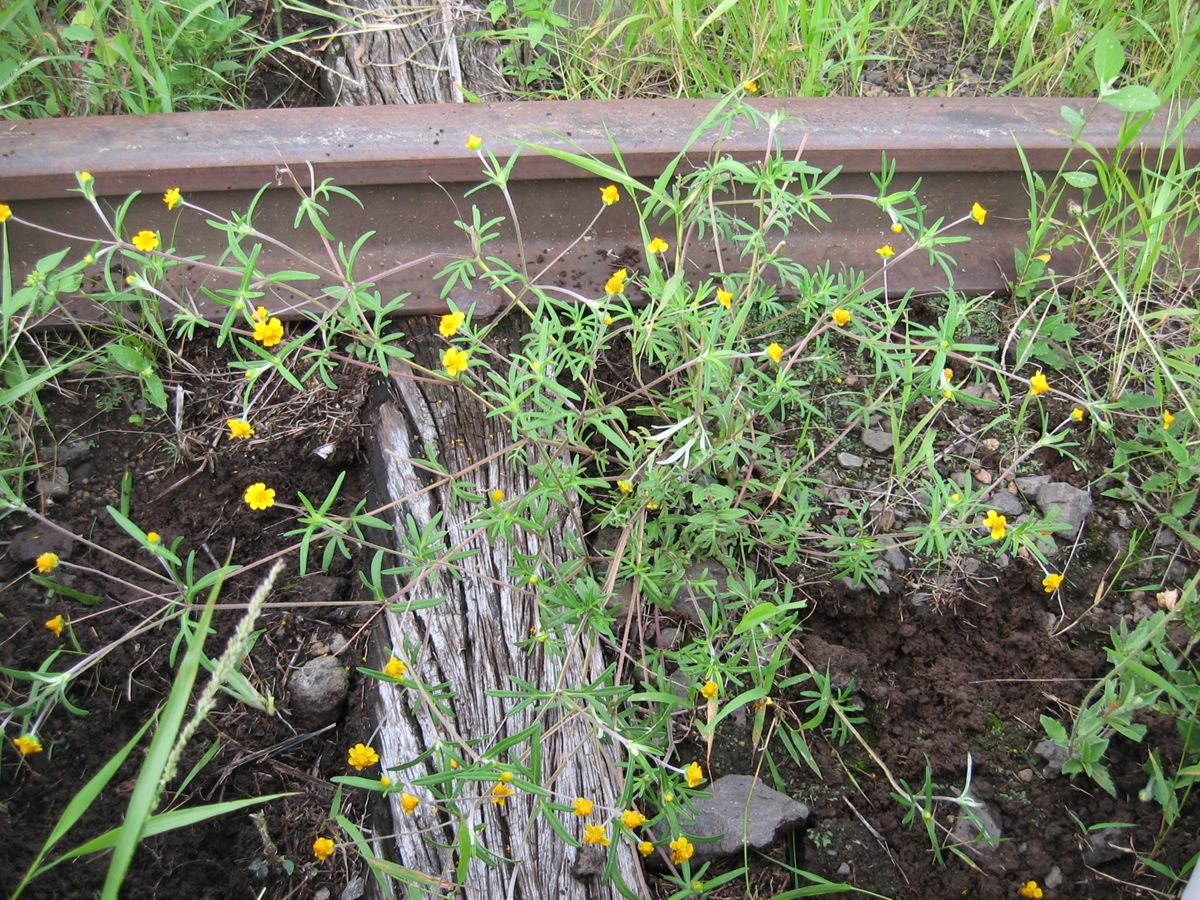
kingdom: Plantae
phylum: Tracheophyta
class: Magnoliopsida
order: Asterales
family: Asteraceae
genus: Melampodium
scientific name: Melampodium linearilobum
